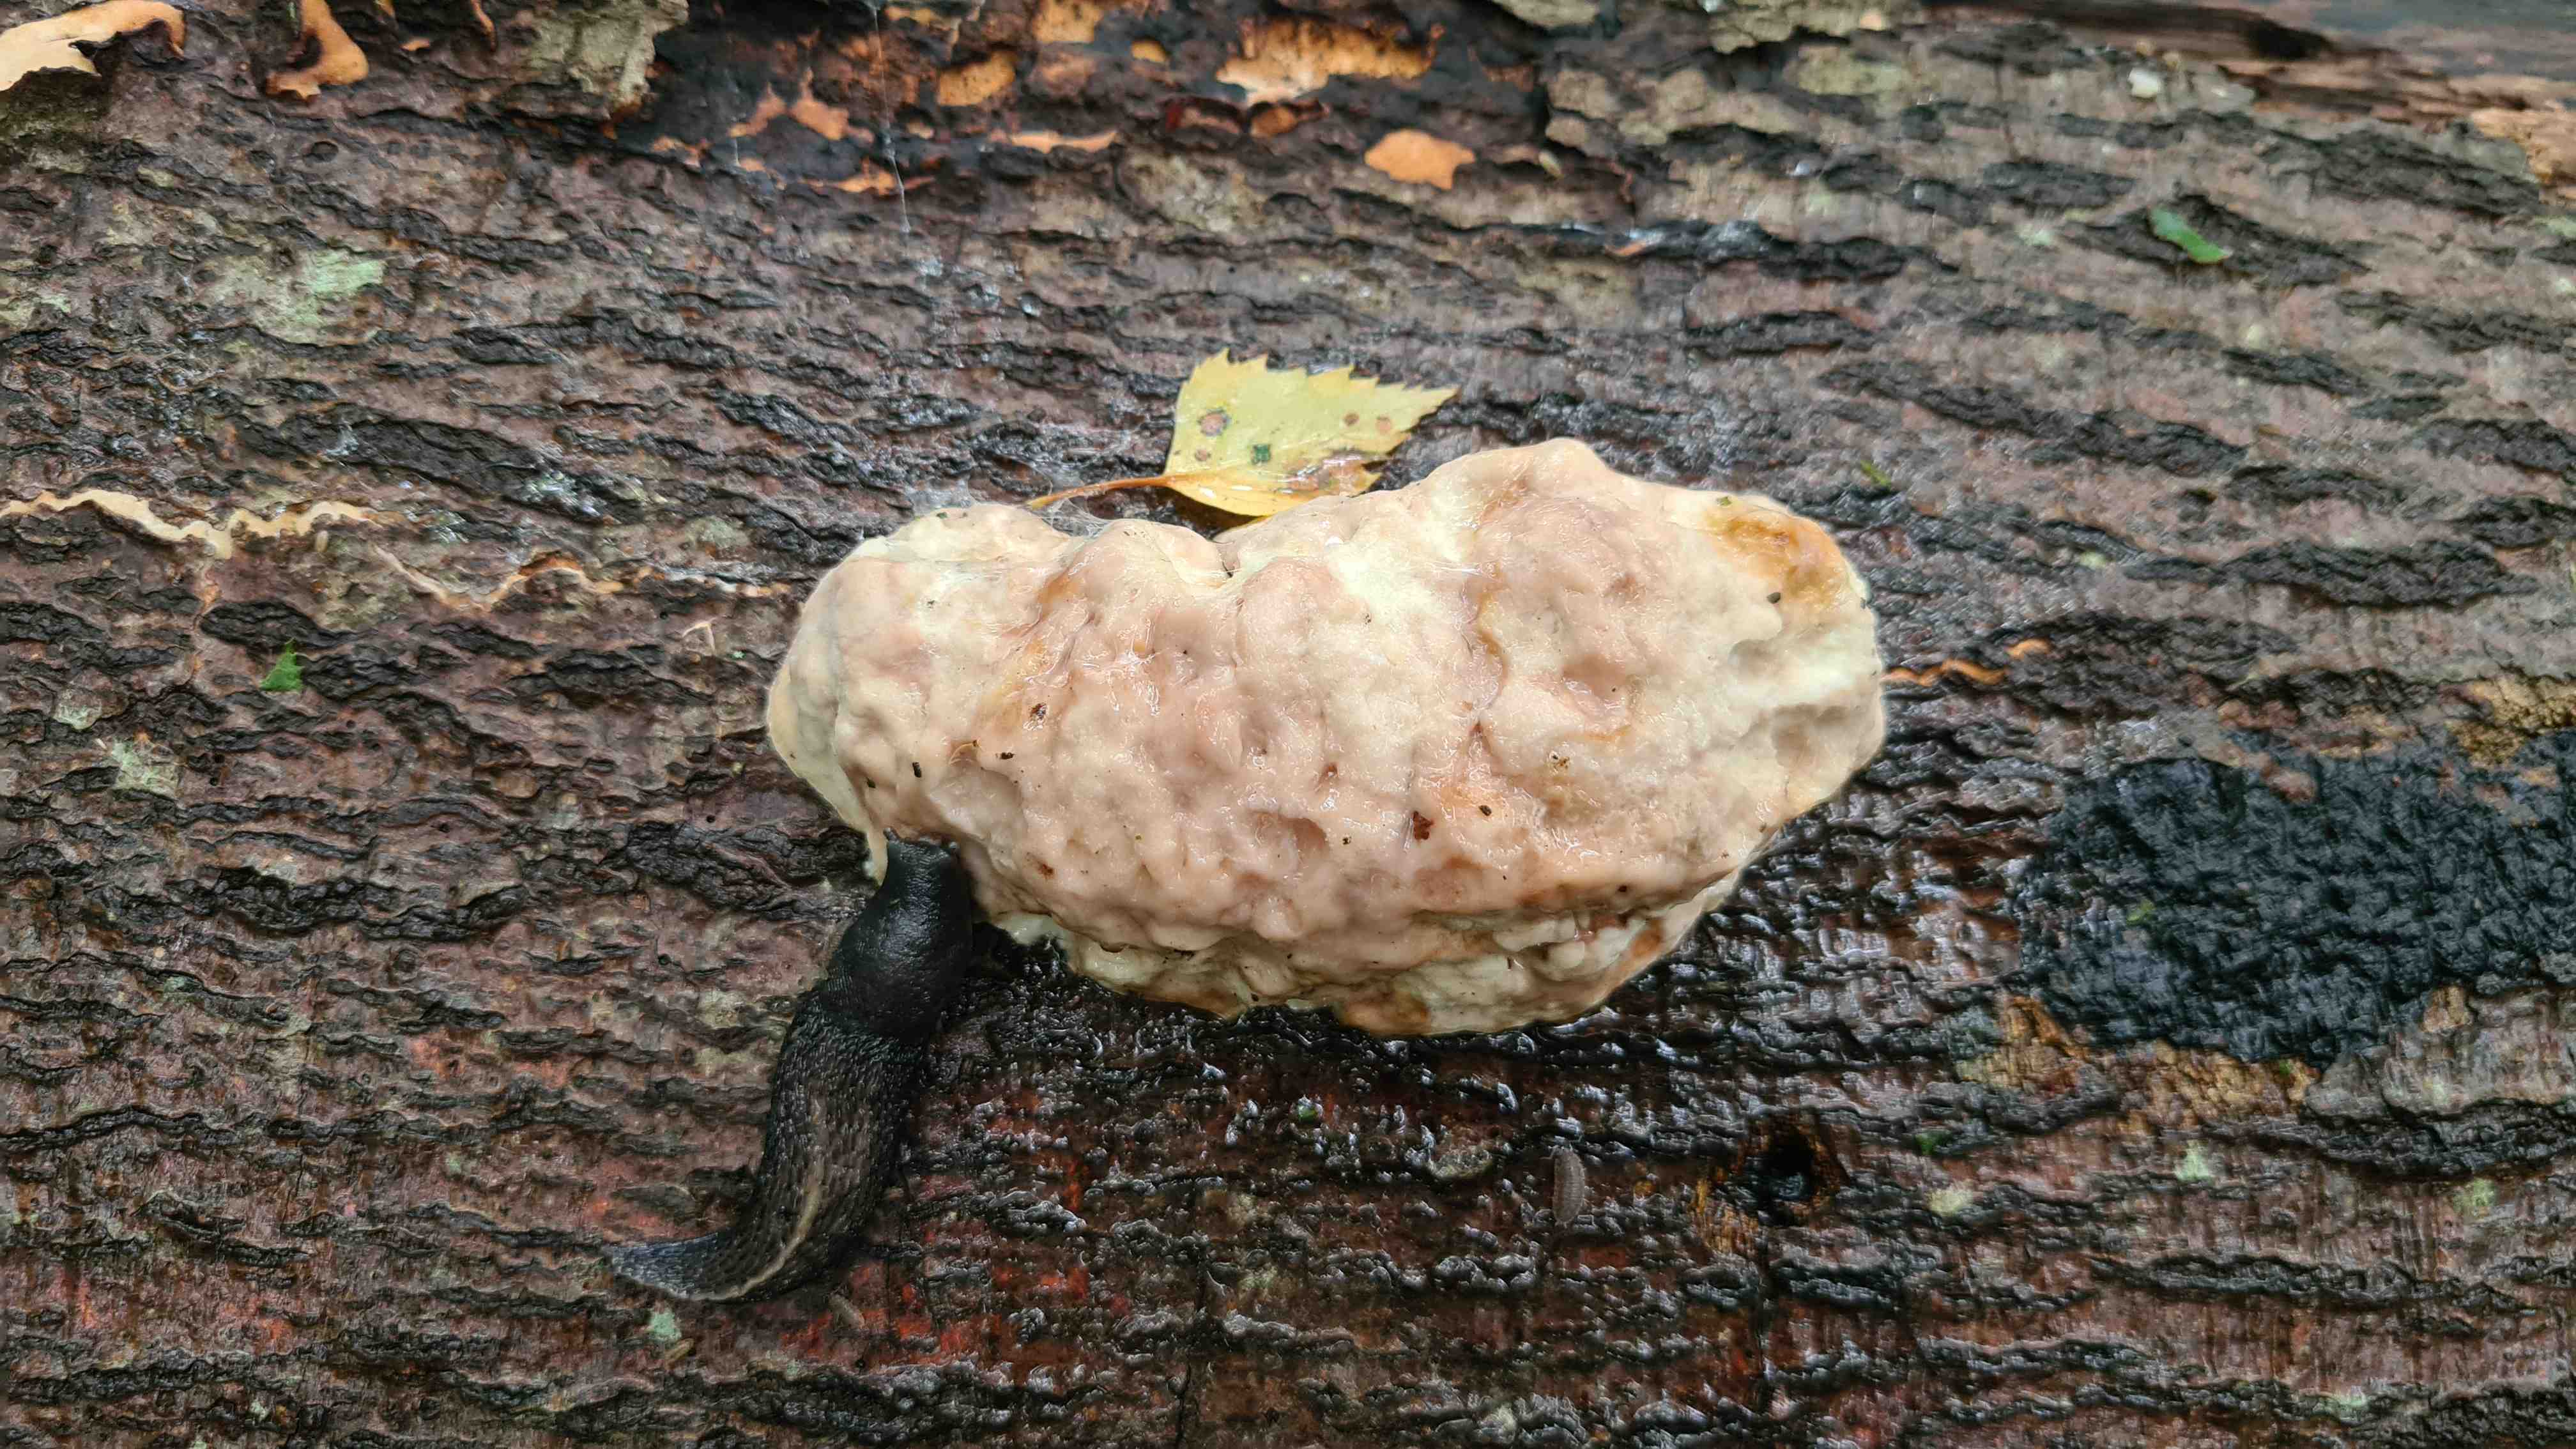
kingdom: Fungi
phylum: Basidiomycota
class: Agaricomycetes
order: Polyporales
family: Fomitopsidaceae
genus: Fomitopsis
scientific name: Fomitopsis pinicola
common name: randbæltet hovporesvamp
